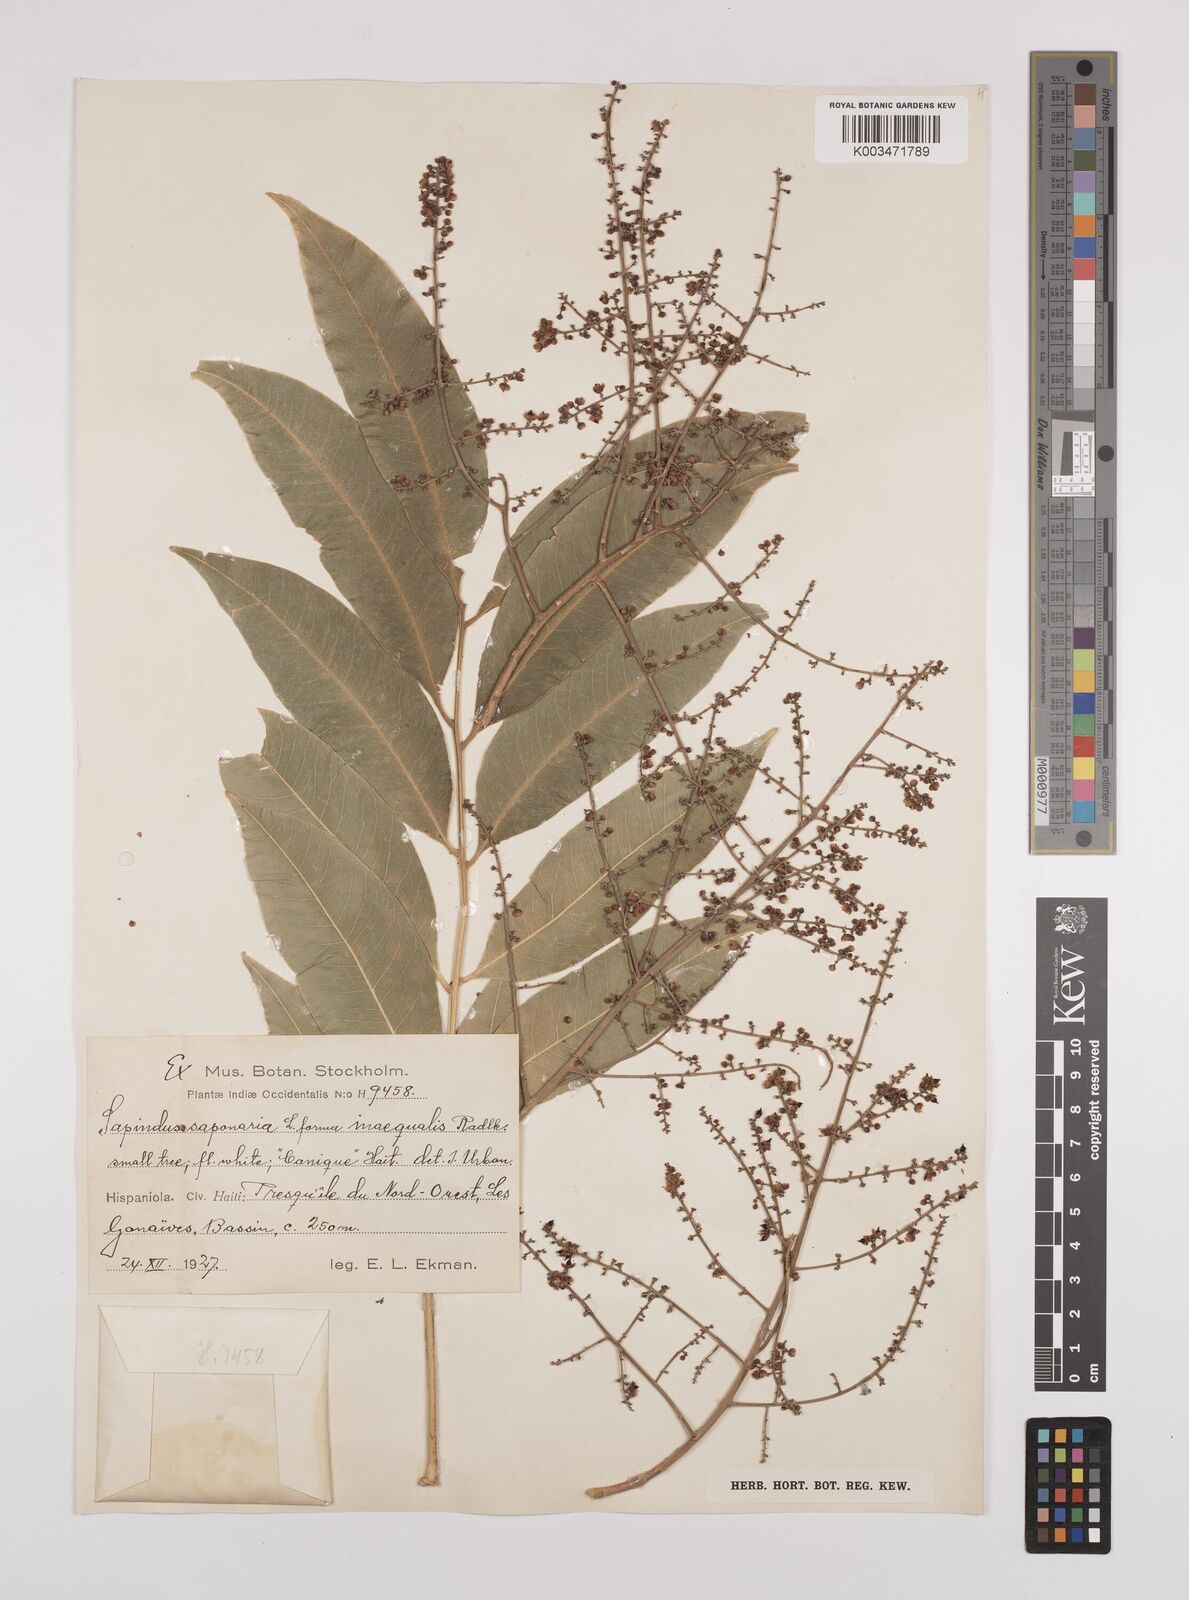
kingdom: Plantae
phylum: Tracheophyta
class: Magnoliopsida
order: Sapindales
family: Sapindaceae
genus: Sapindus
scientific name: Sapindus saponaria
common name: Wingleaf soapberry
